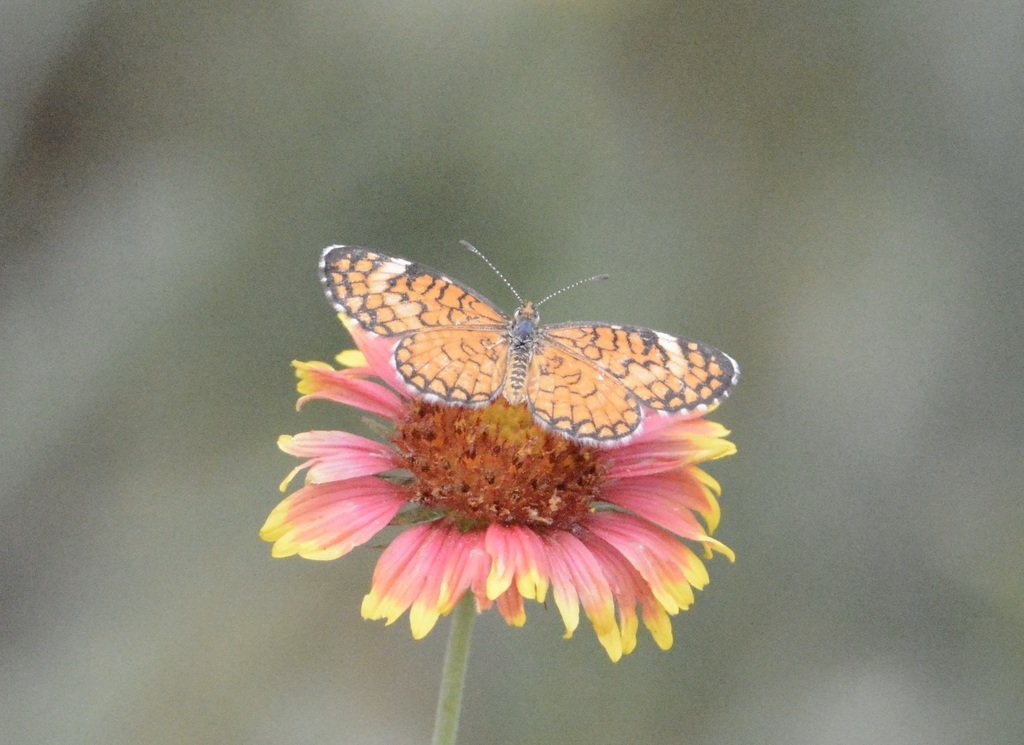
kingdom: Animalia
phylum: Arthropoda
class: Insecta
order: Lepidoptera
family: Nymphalidae
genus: Dymasia
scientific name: Dymasia dymas
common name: Tiny Checkerspot
